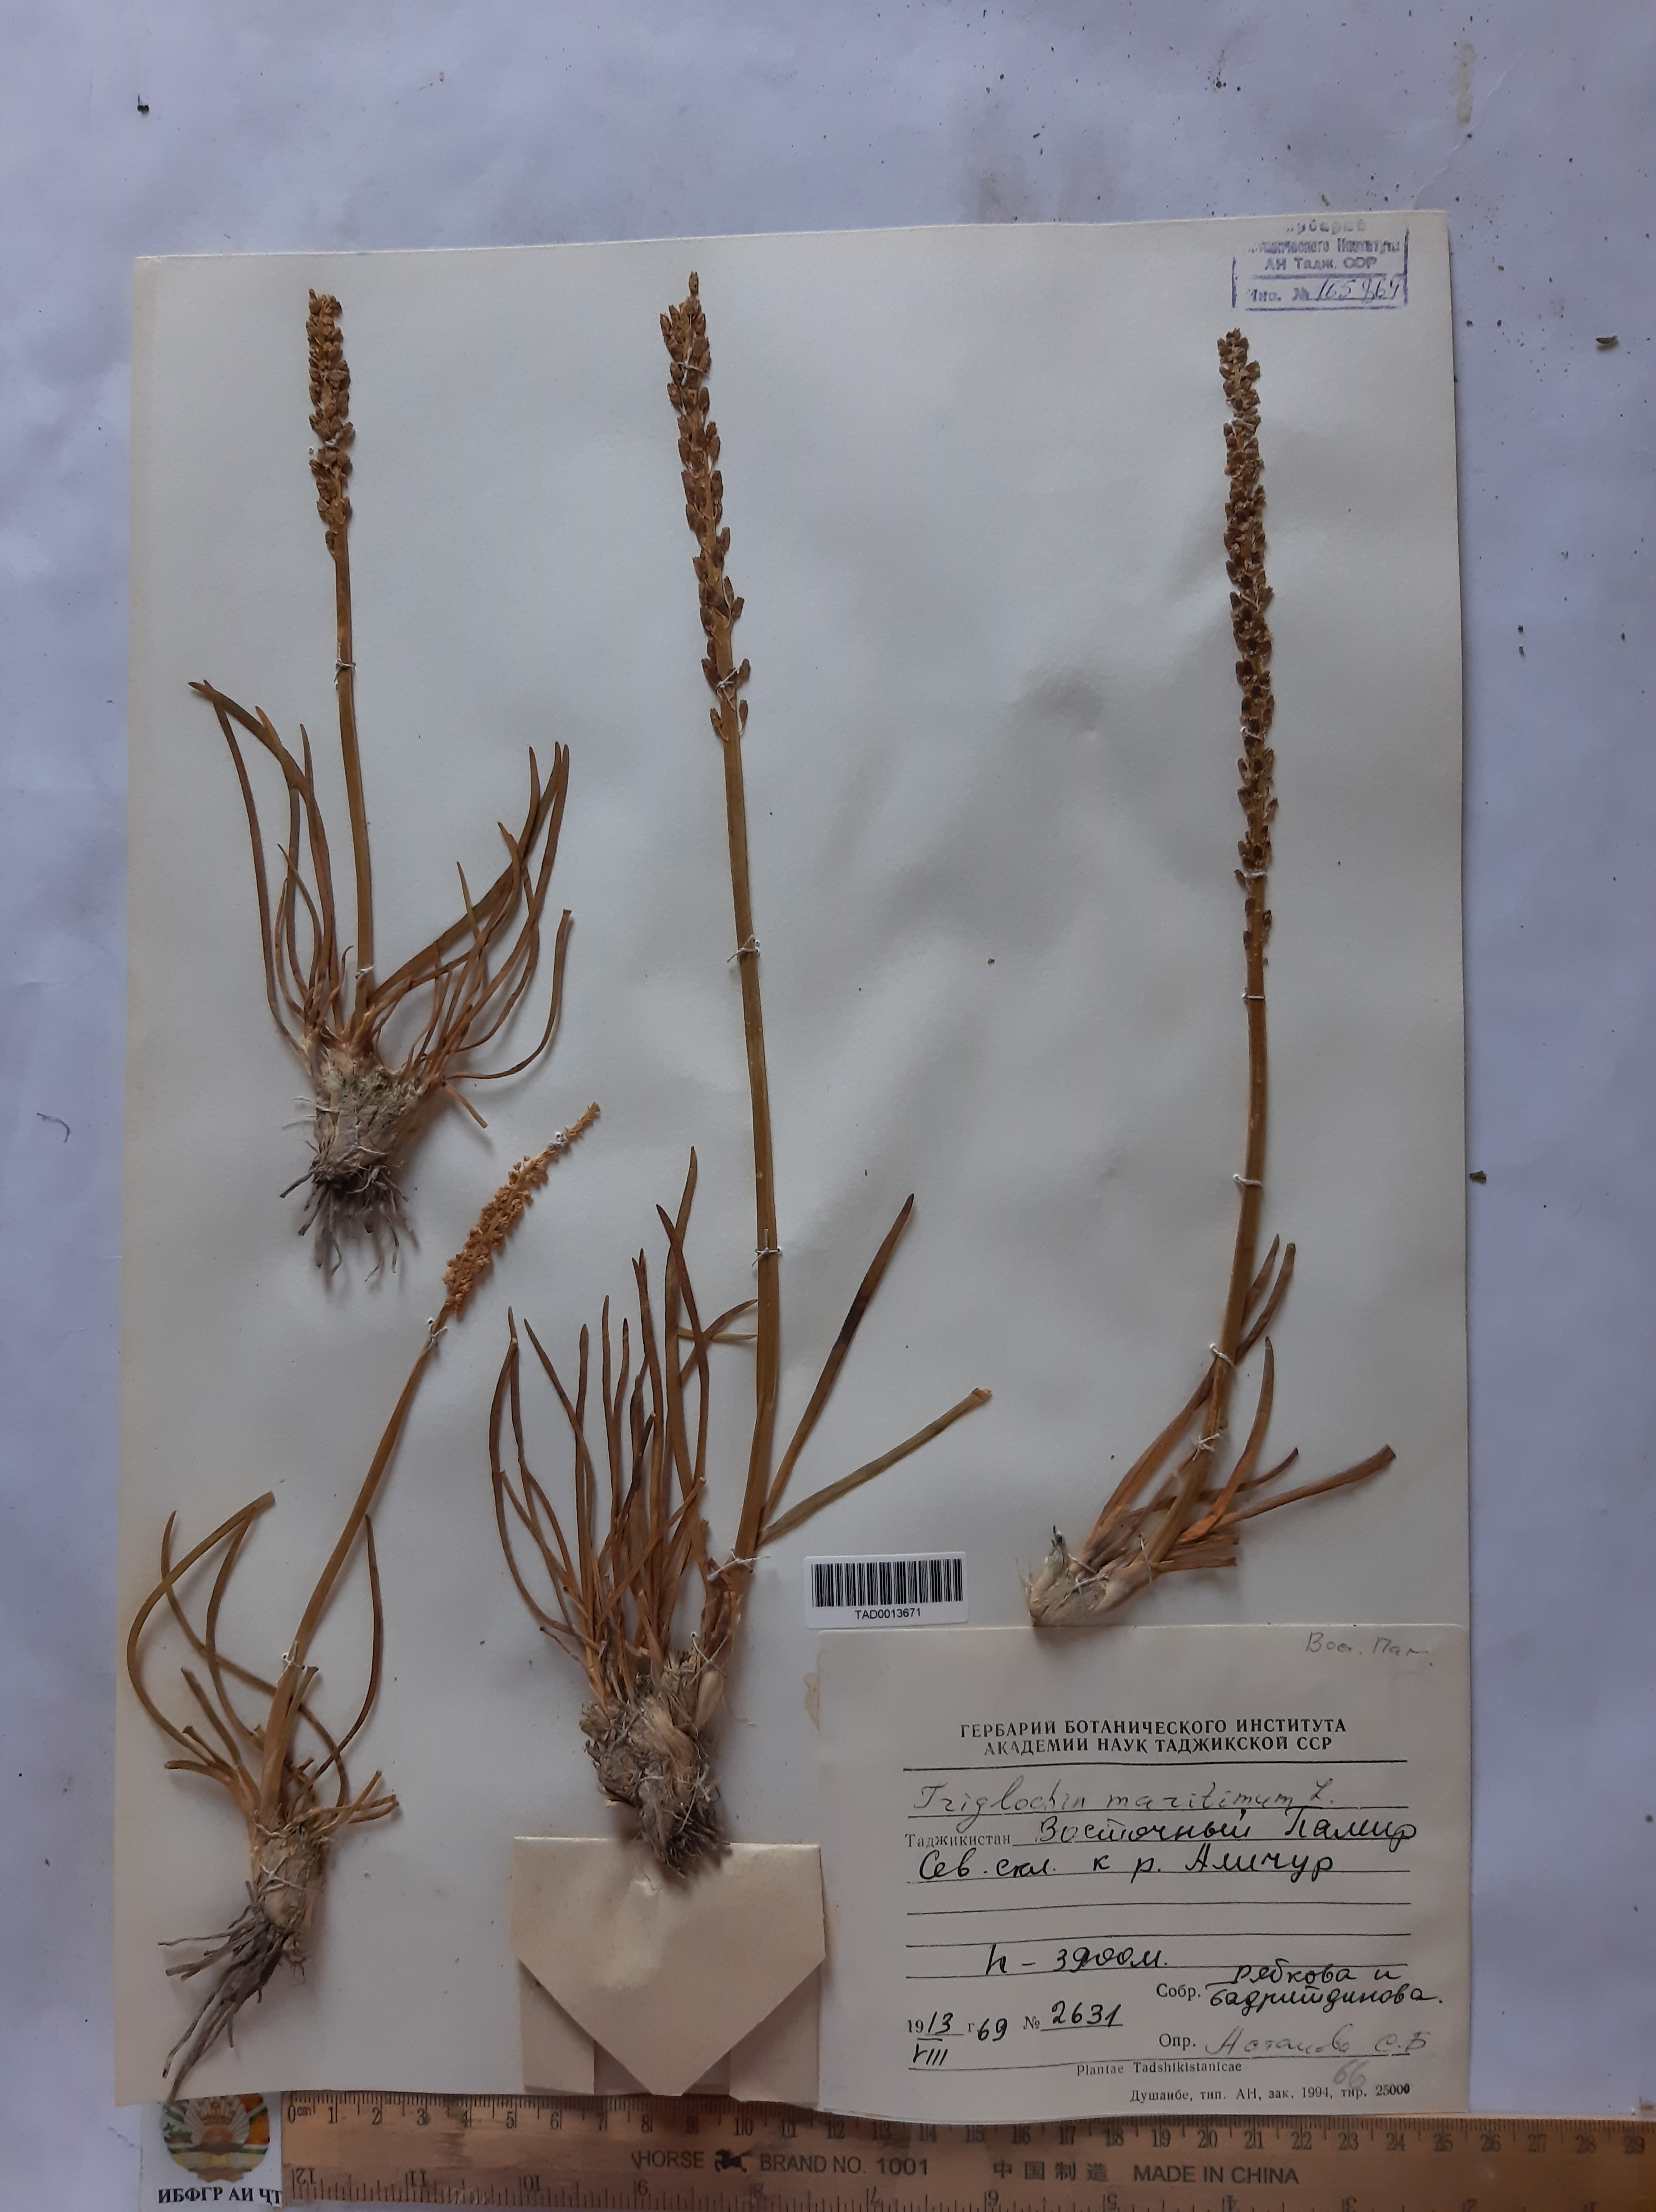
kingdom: Plantae
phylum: Tracheophyta
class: Liliopsida
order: Alismatales
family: Juncaginaceae
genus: Triglochin
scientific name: Triglochin maritima
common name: Sea arrowgrass
